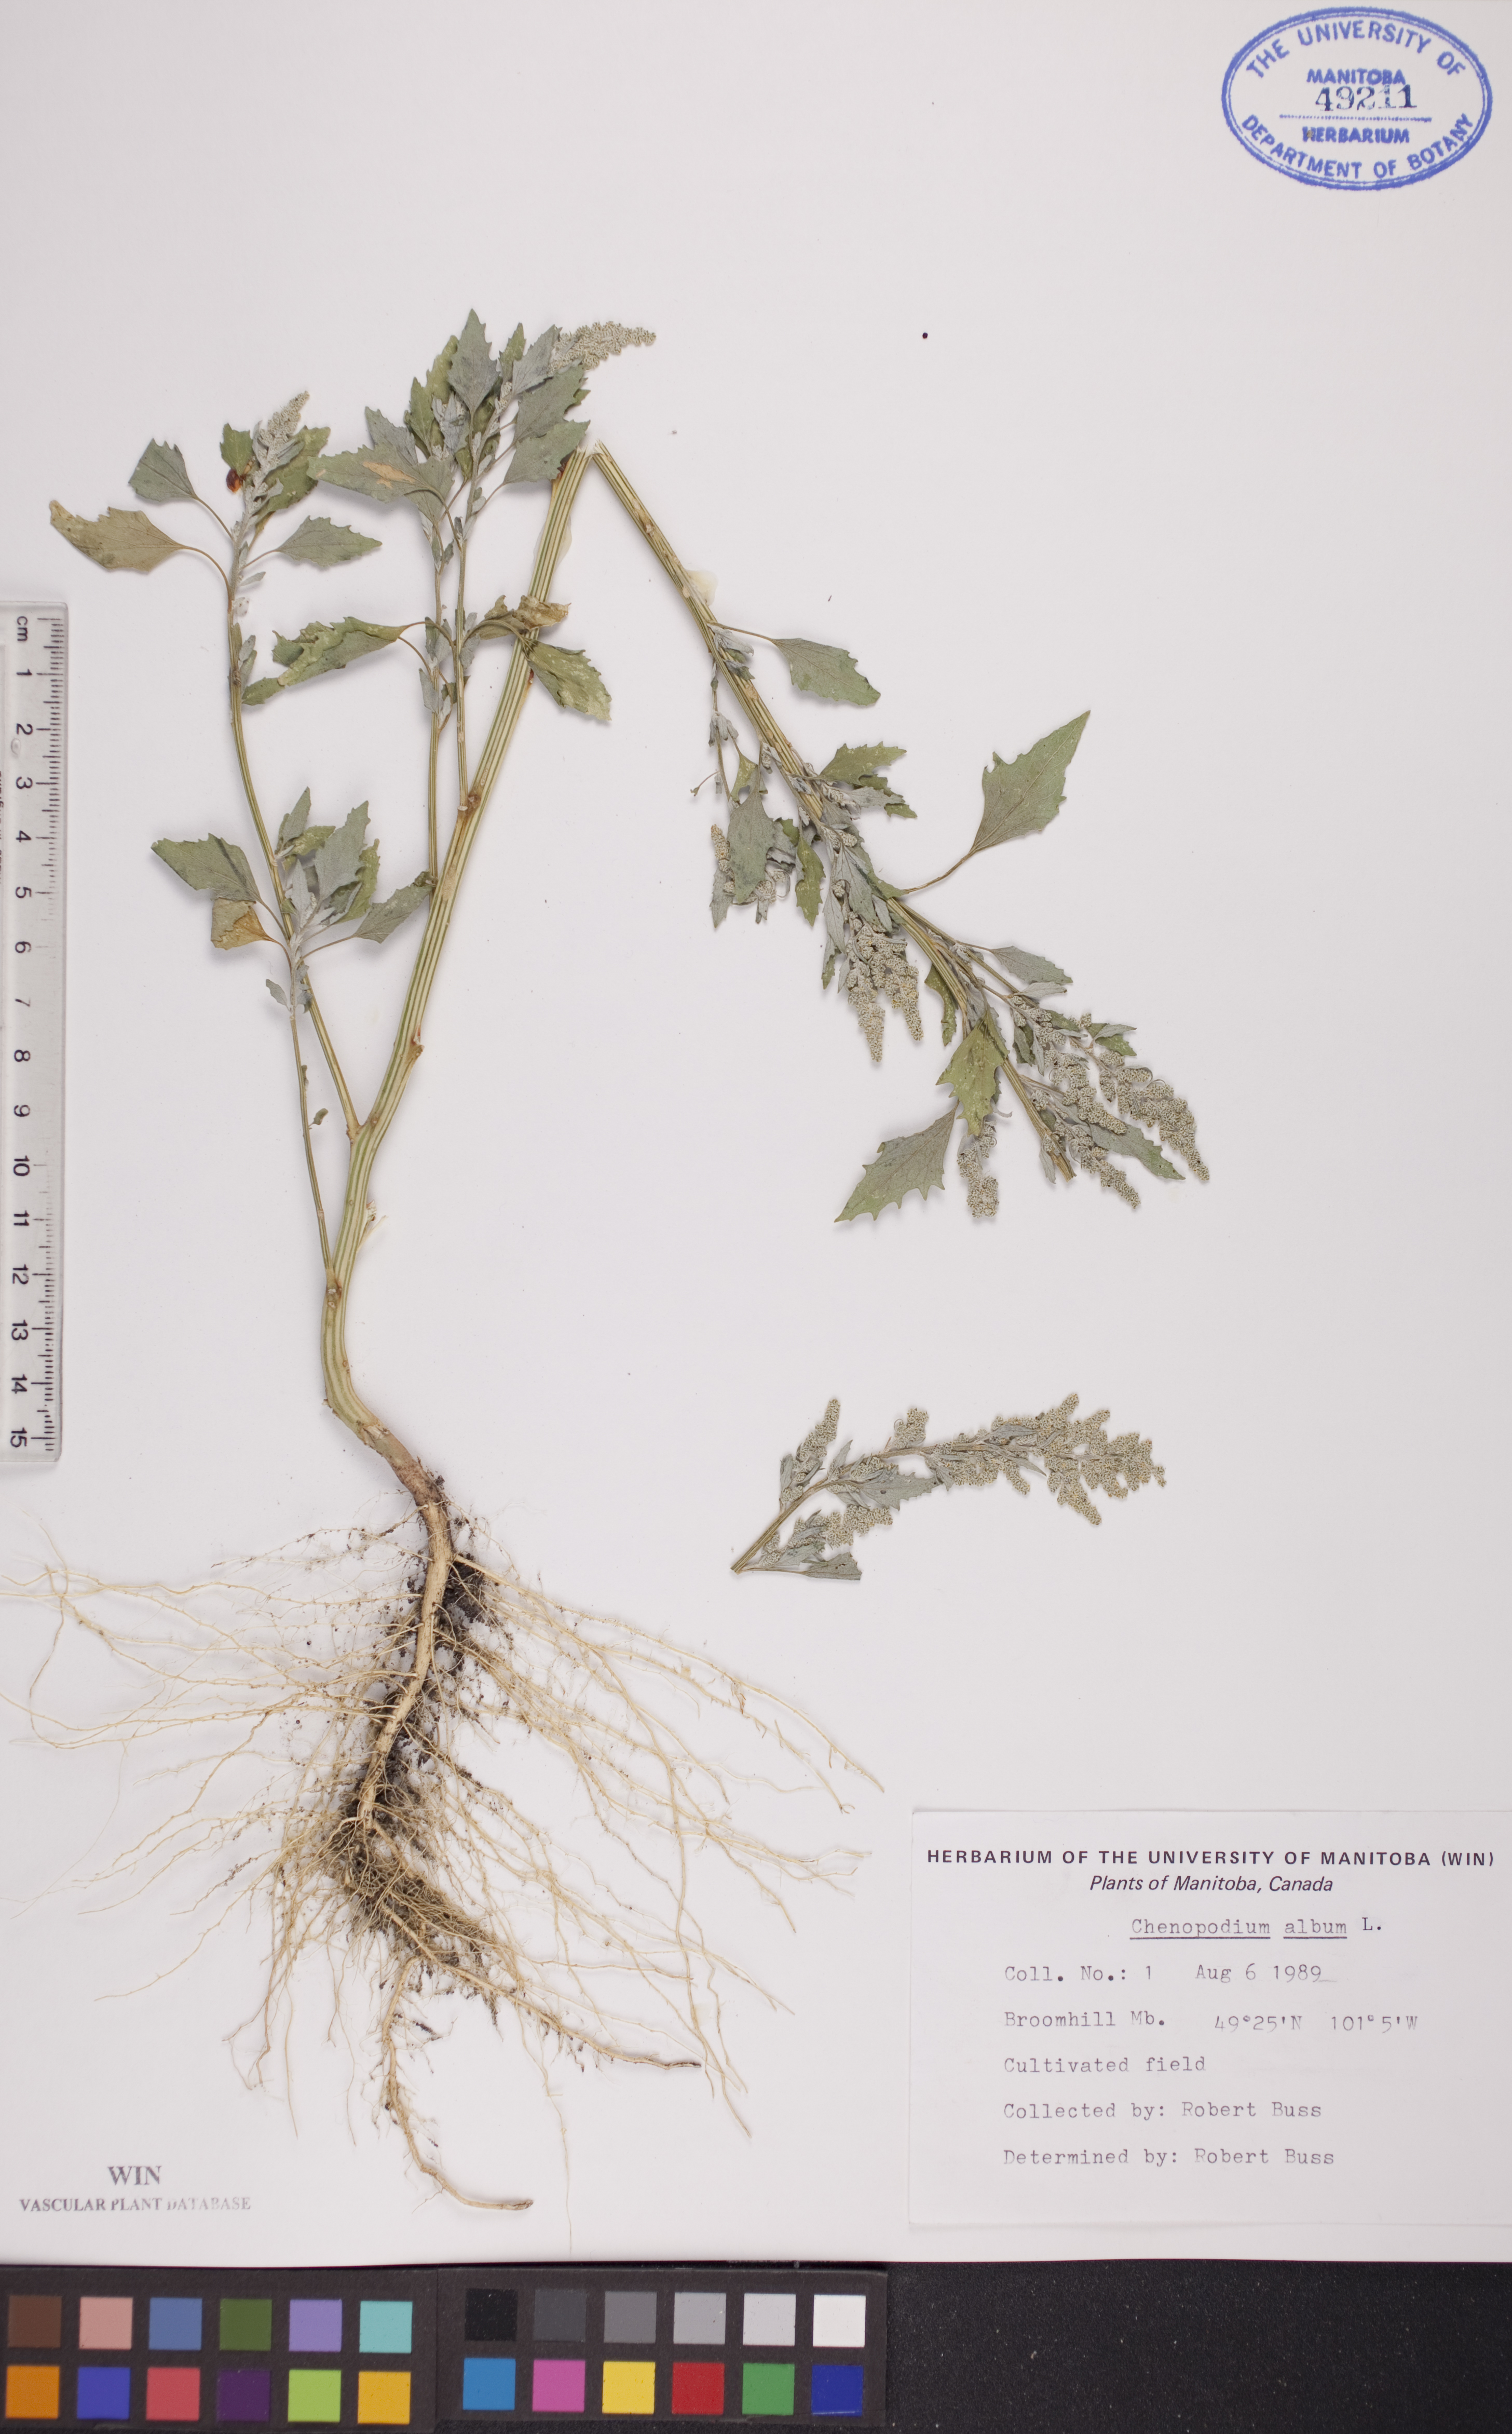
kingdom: Plantae
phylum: Tracheophyta
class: Magnoliopsida
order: Caryophyllales
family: Amaranthaceae
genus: Chenopodium
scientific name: Chenopodium album
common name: Fat-hen
